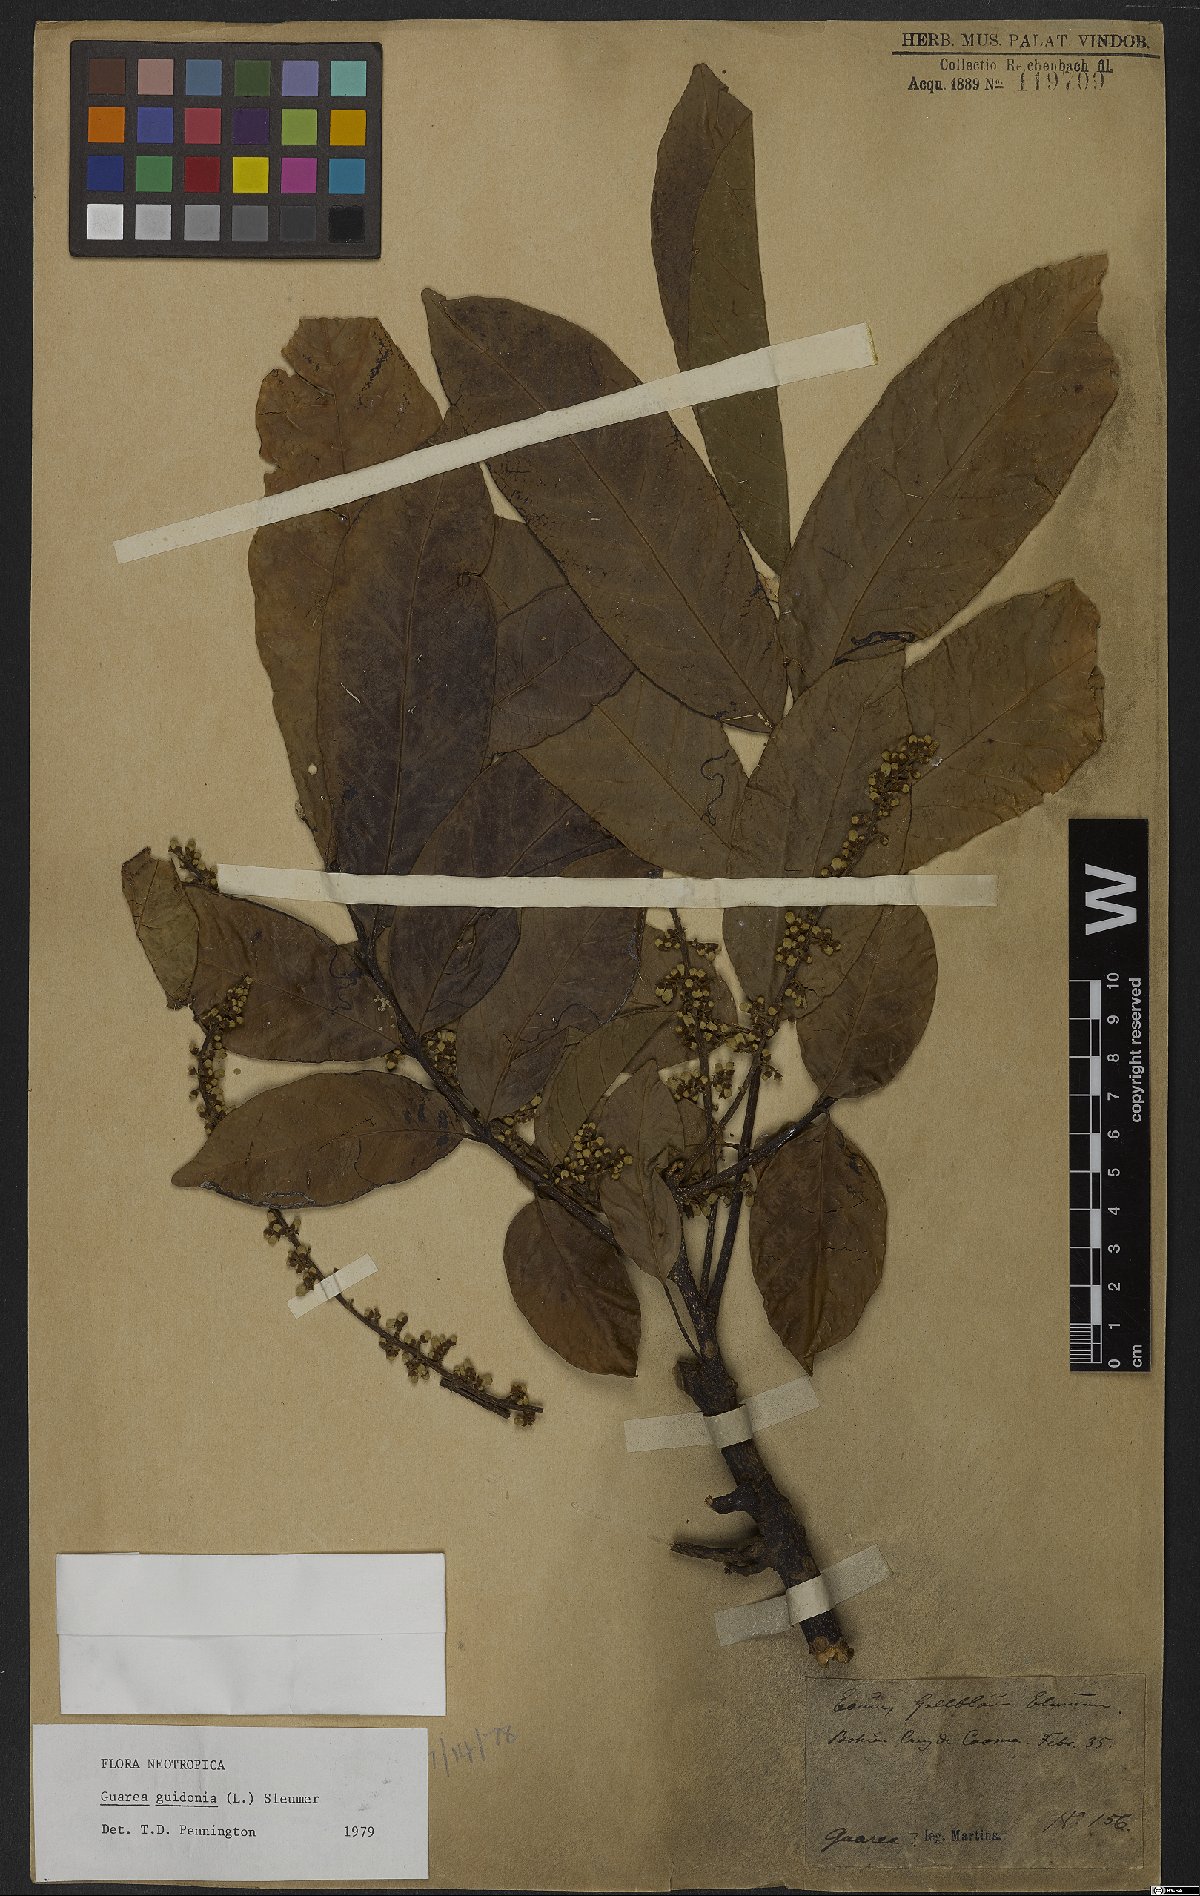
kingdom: Plantae
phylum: Tracheophyta
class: Magnoliopsida
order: Sapindales
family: Meliaceae
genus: Guarea
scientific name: Guarea guidonia
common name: American muskwood
